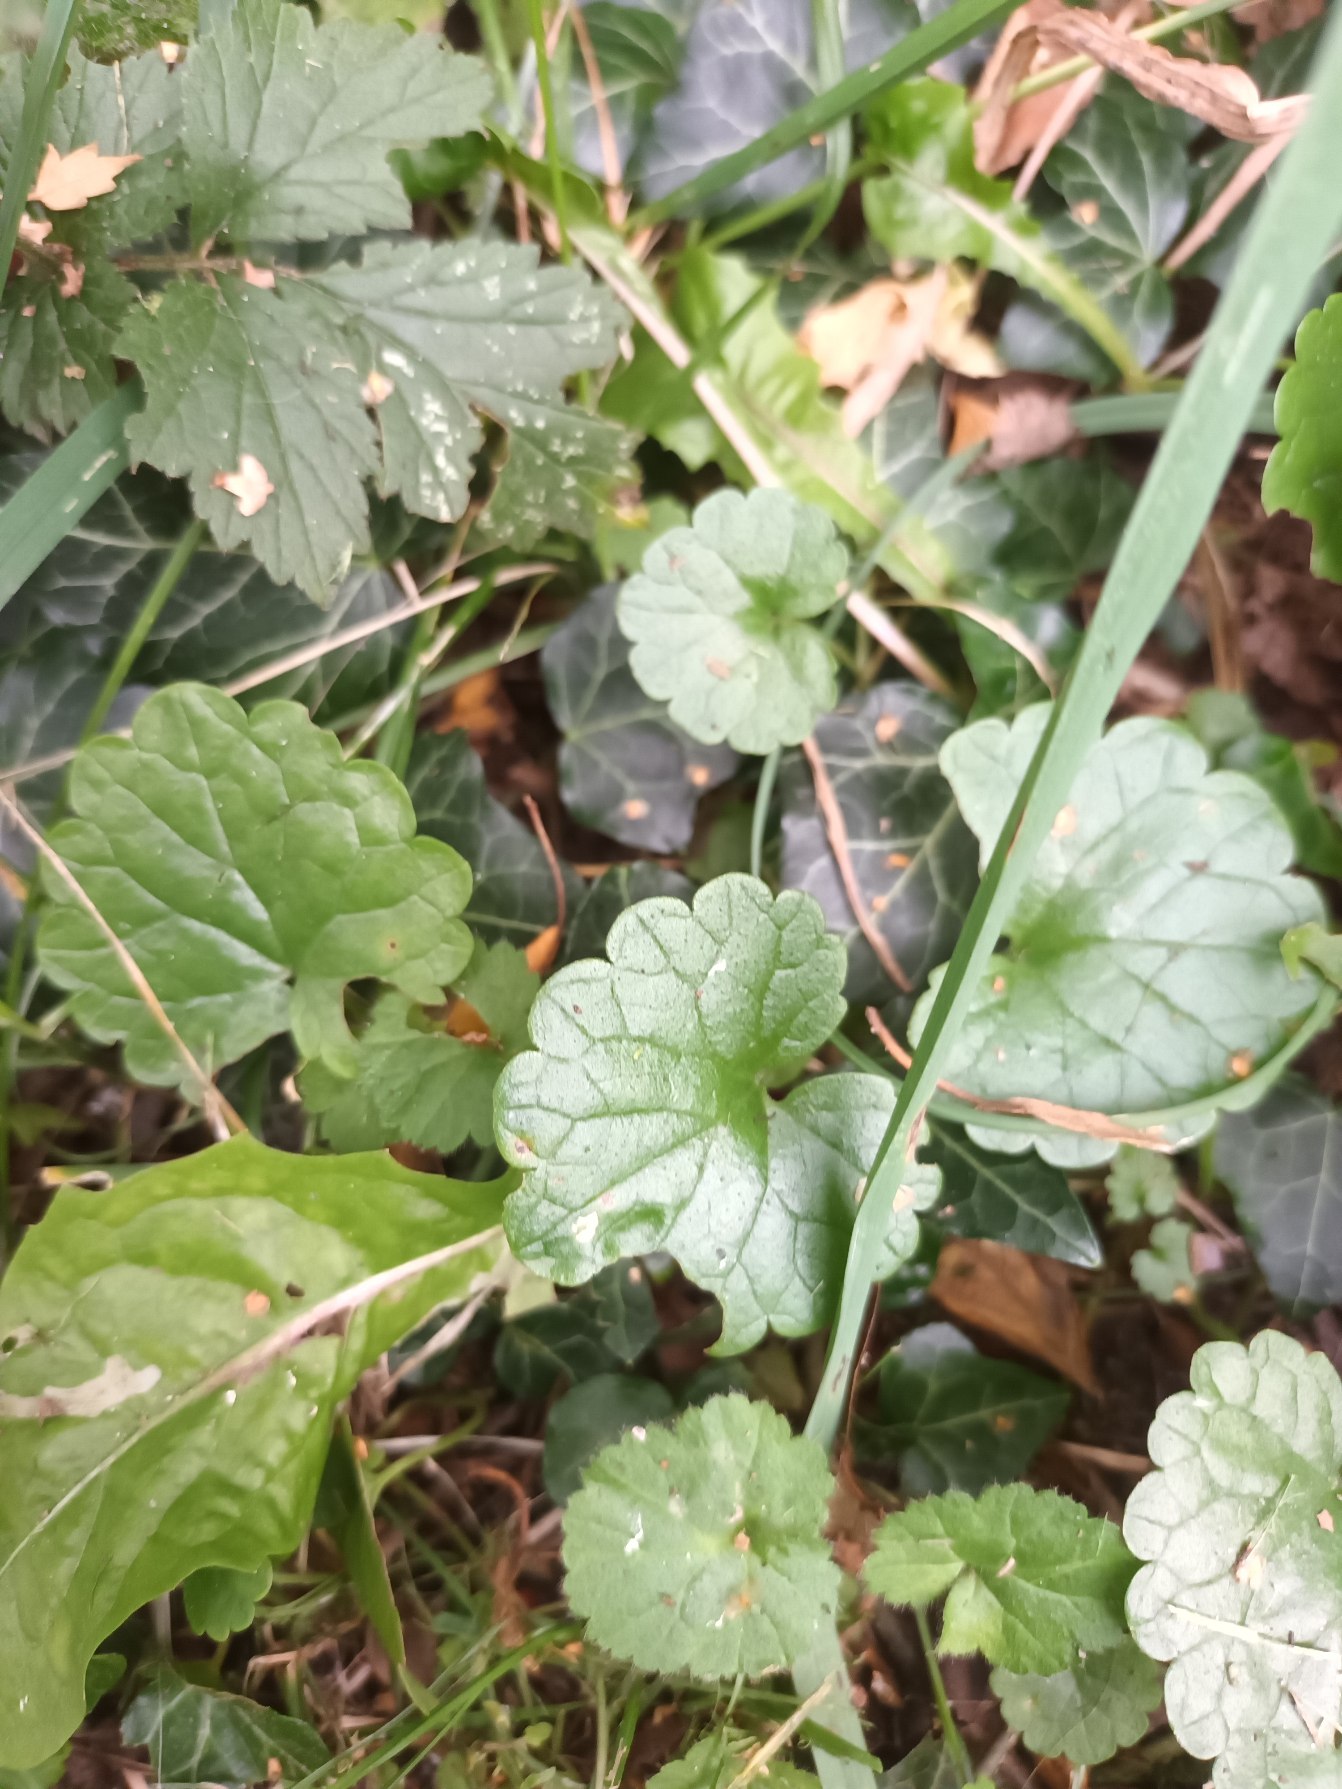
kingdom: Plantae
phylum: Tracheophyta
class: Magnoliopsida
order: Lamiales
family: Lamiaceae
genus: Glechoma
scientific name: Glechoma hederacea
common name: Korsknap
